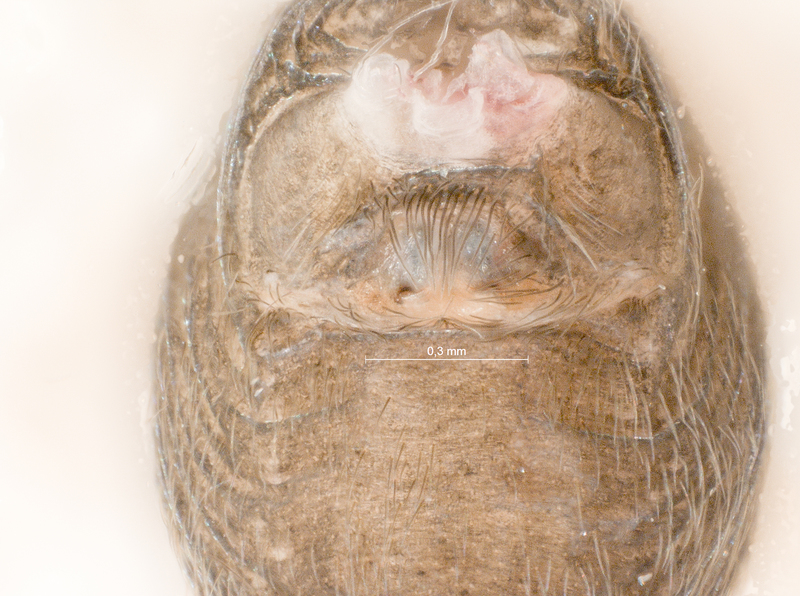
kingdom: Animalia
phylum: Arthropoda
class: Arachnida
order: Araneae
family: Titanoecidae
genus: Titanoeca
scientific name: Titanoeca spominima
